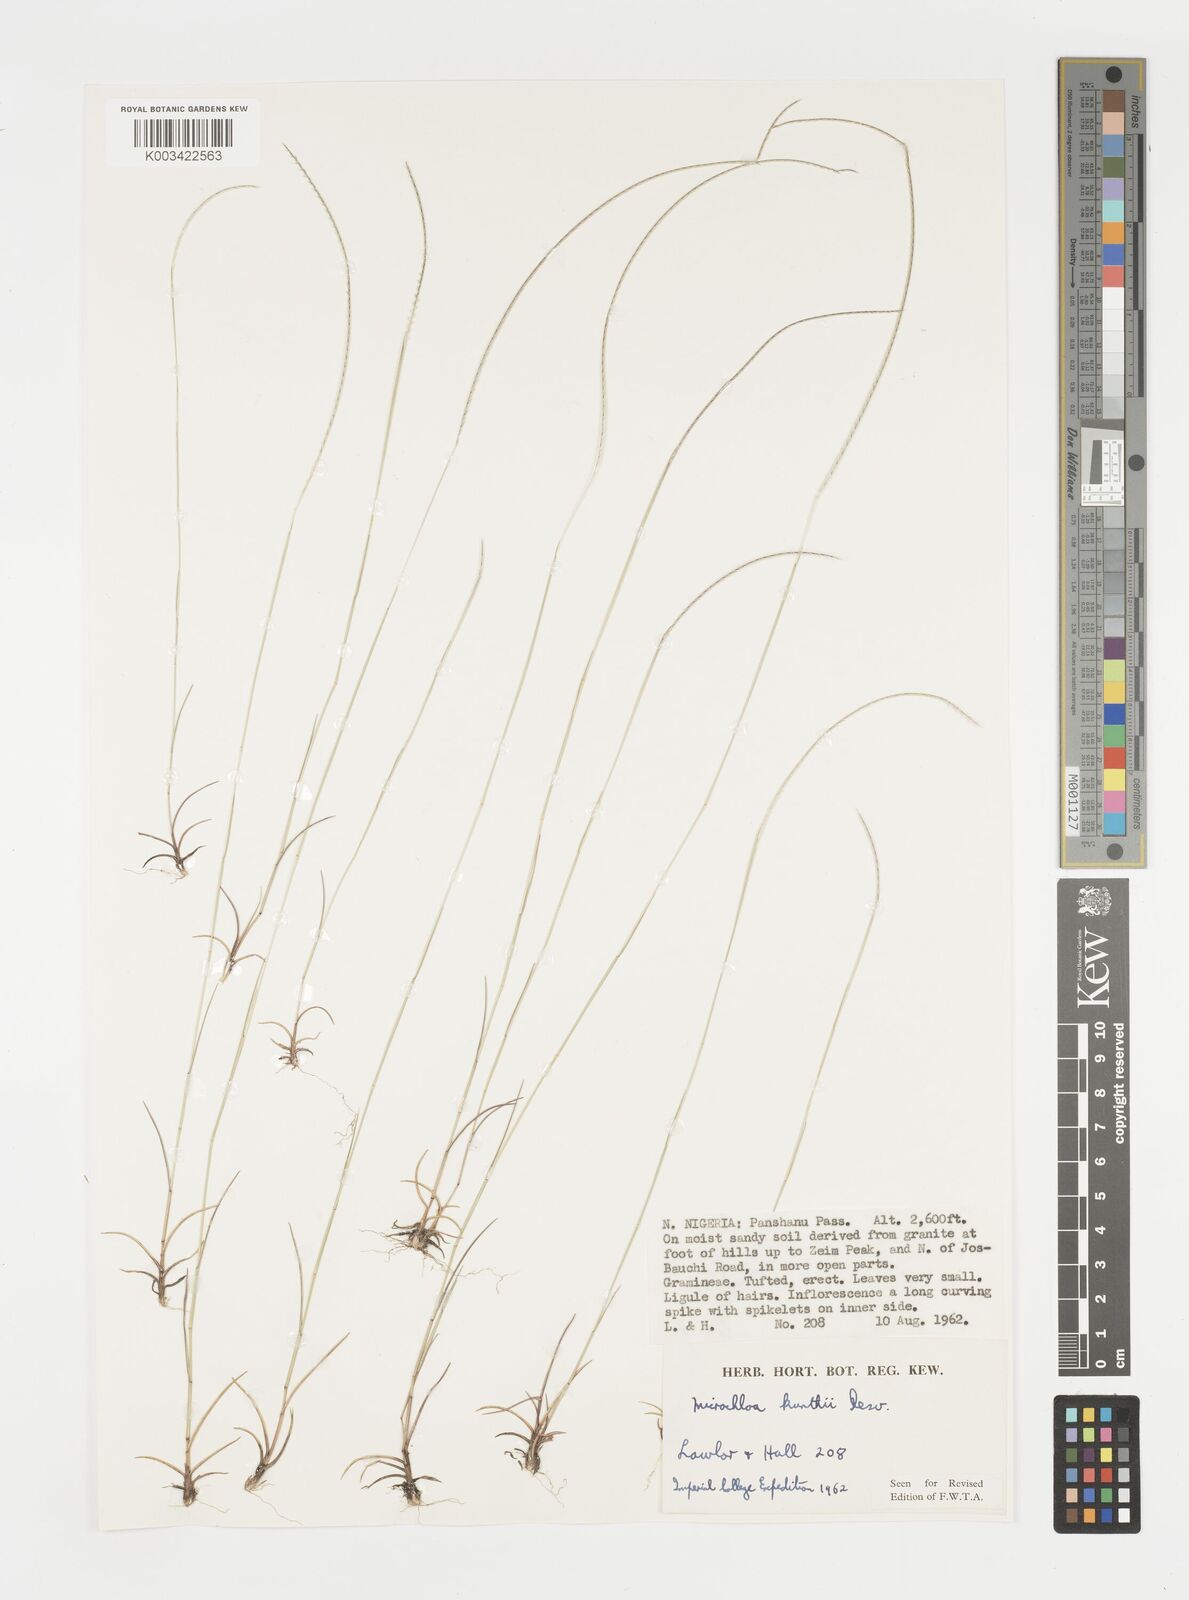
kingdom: Plantae
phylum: Tracheophyta
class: Liliopsida
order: Poales
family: Poaceae
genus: Microchloa
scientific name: Microchloa kunthii
